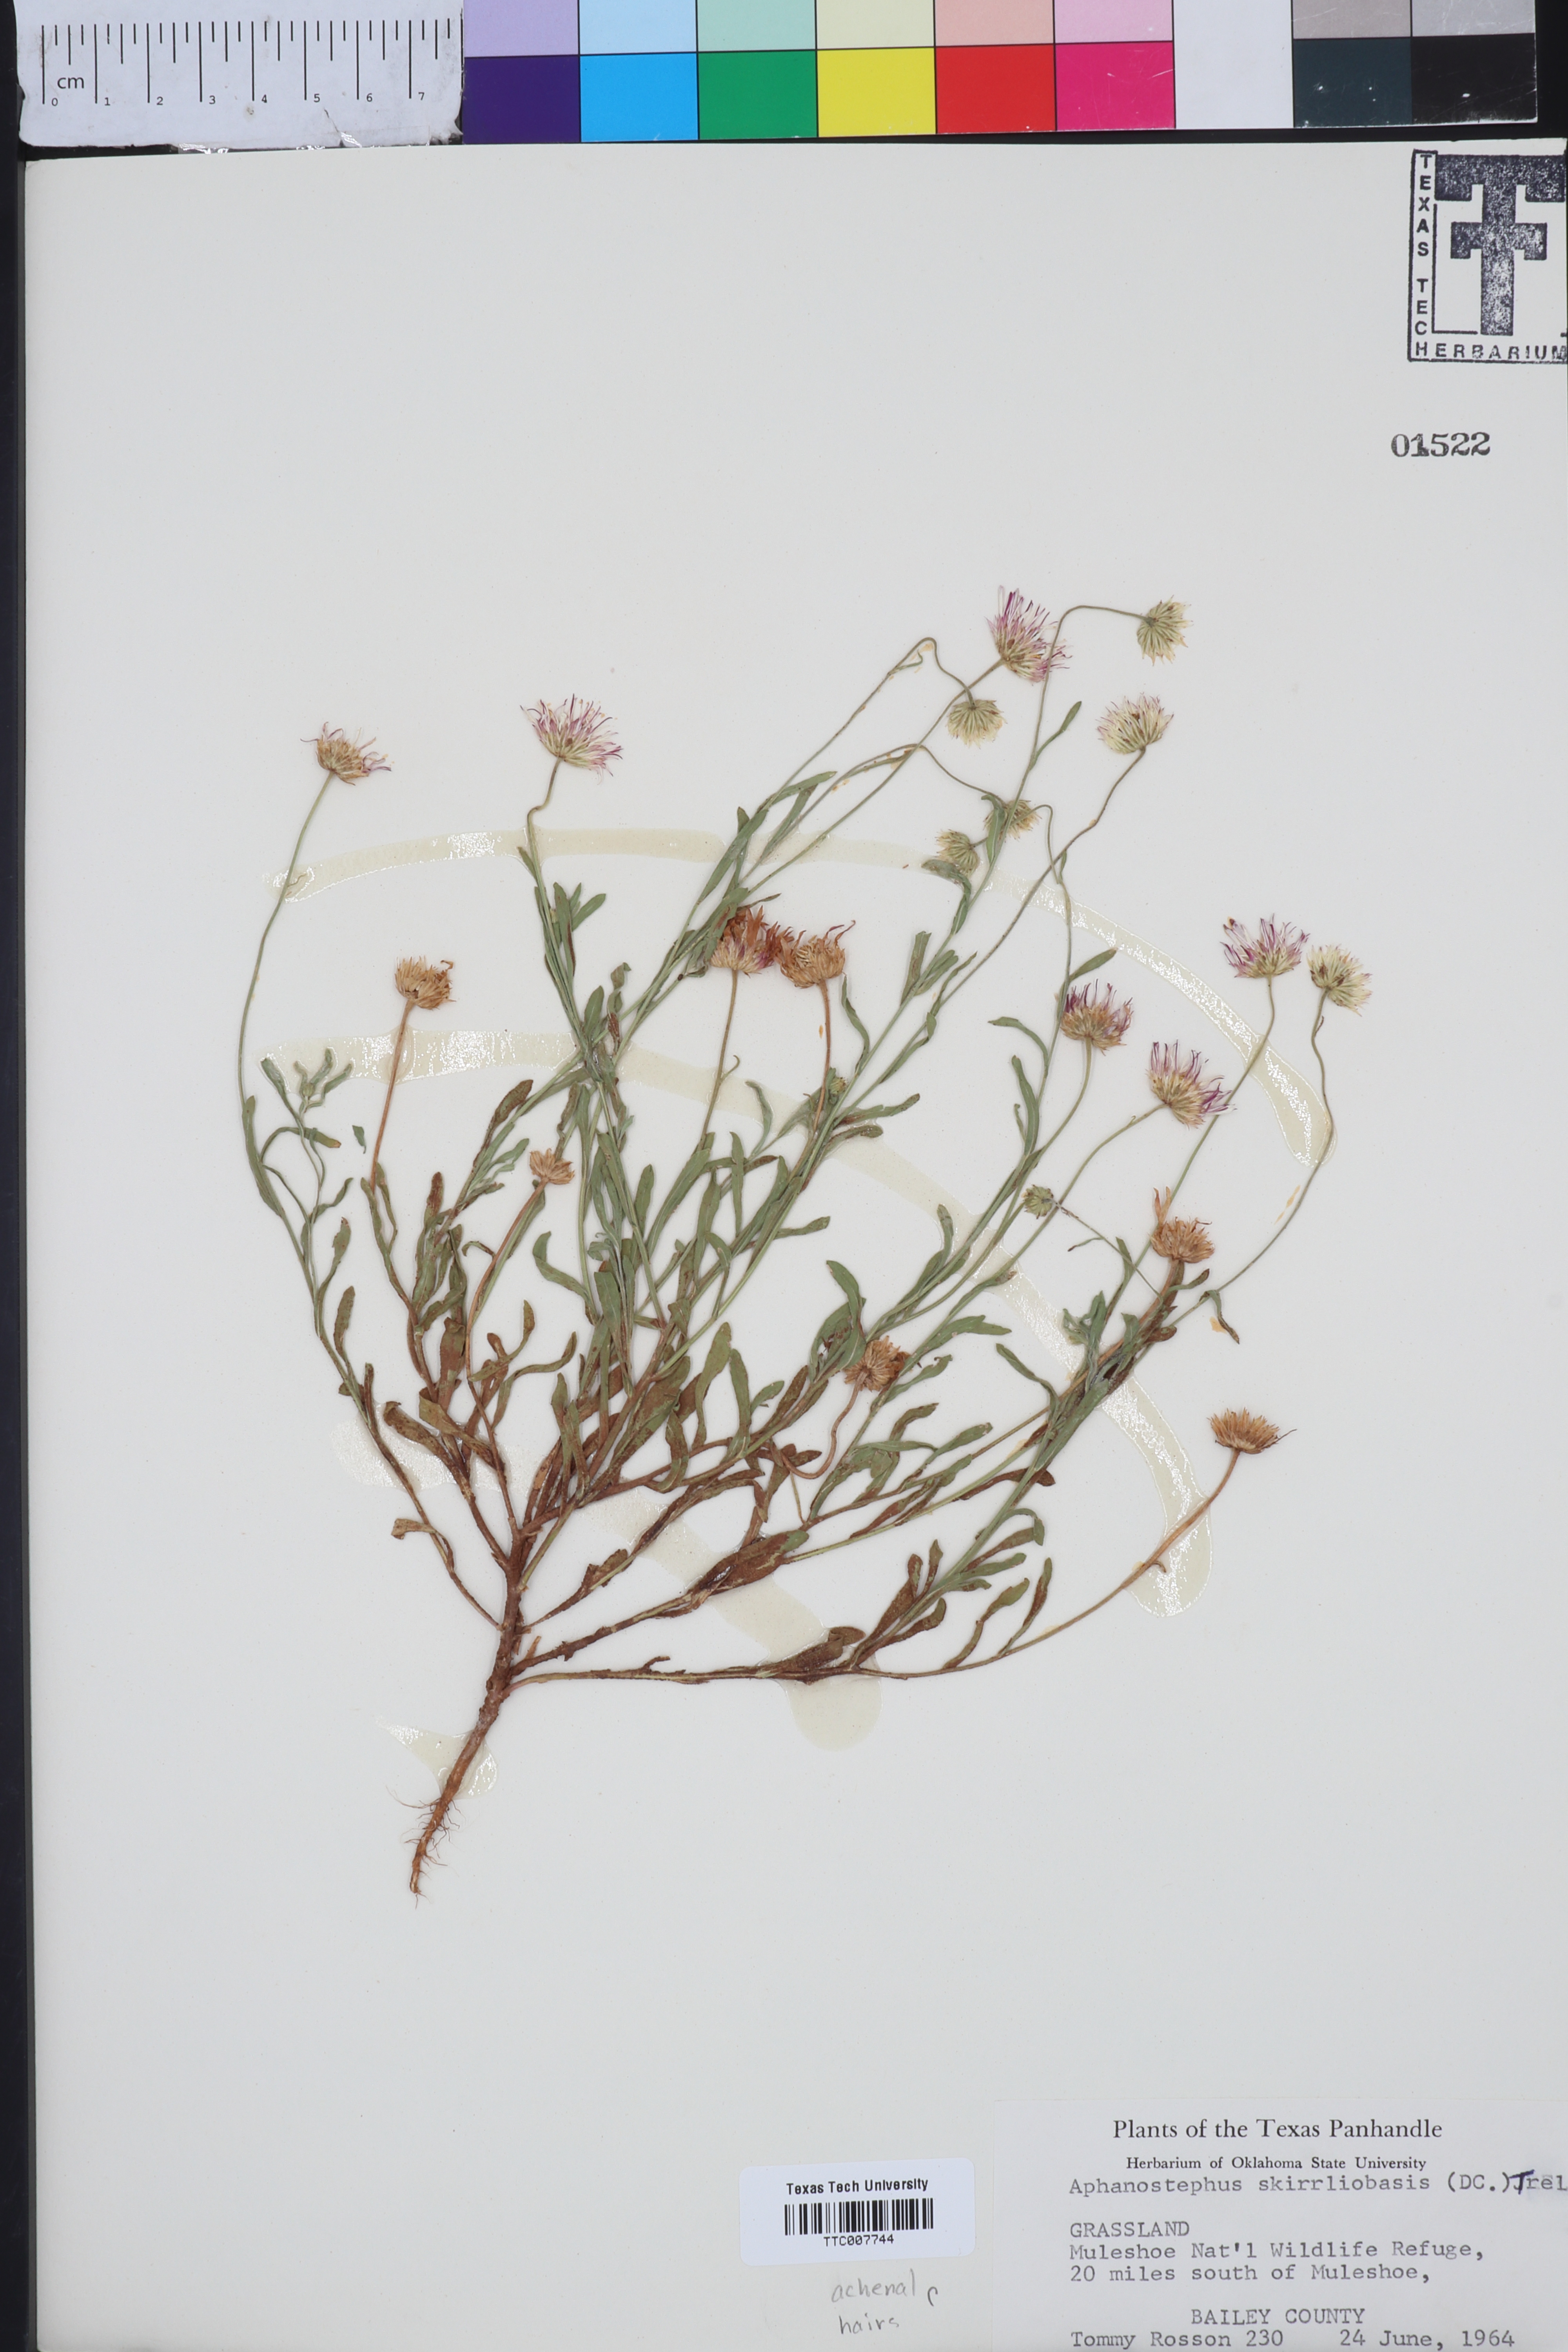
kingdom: Plantae
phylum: Tracheophyta
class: Magnoliopsida
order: Asterales
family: Asteraceae
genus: Aphanostephus
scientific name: Aphanostephus skirrhobasis
